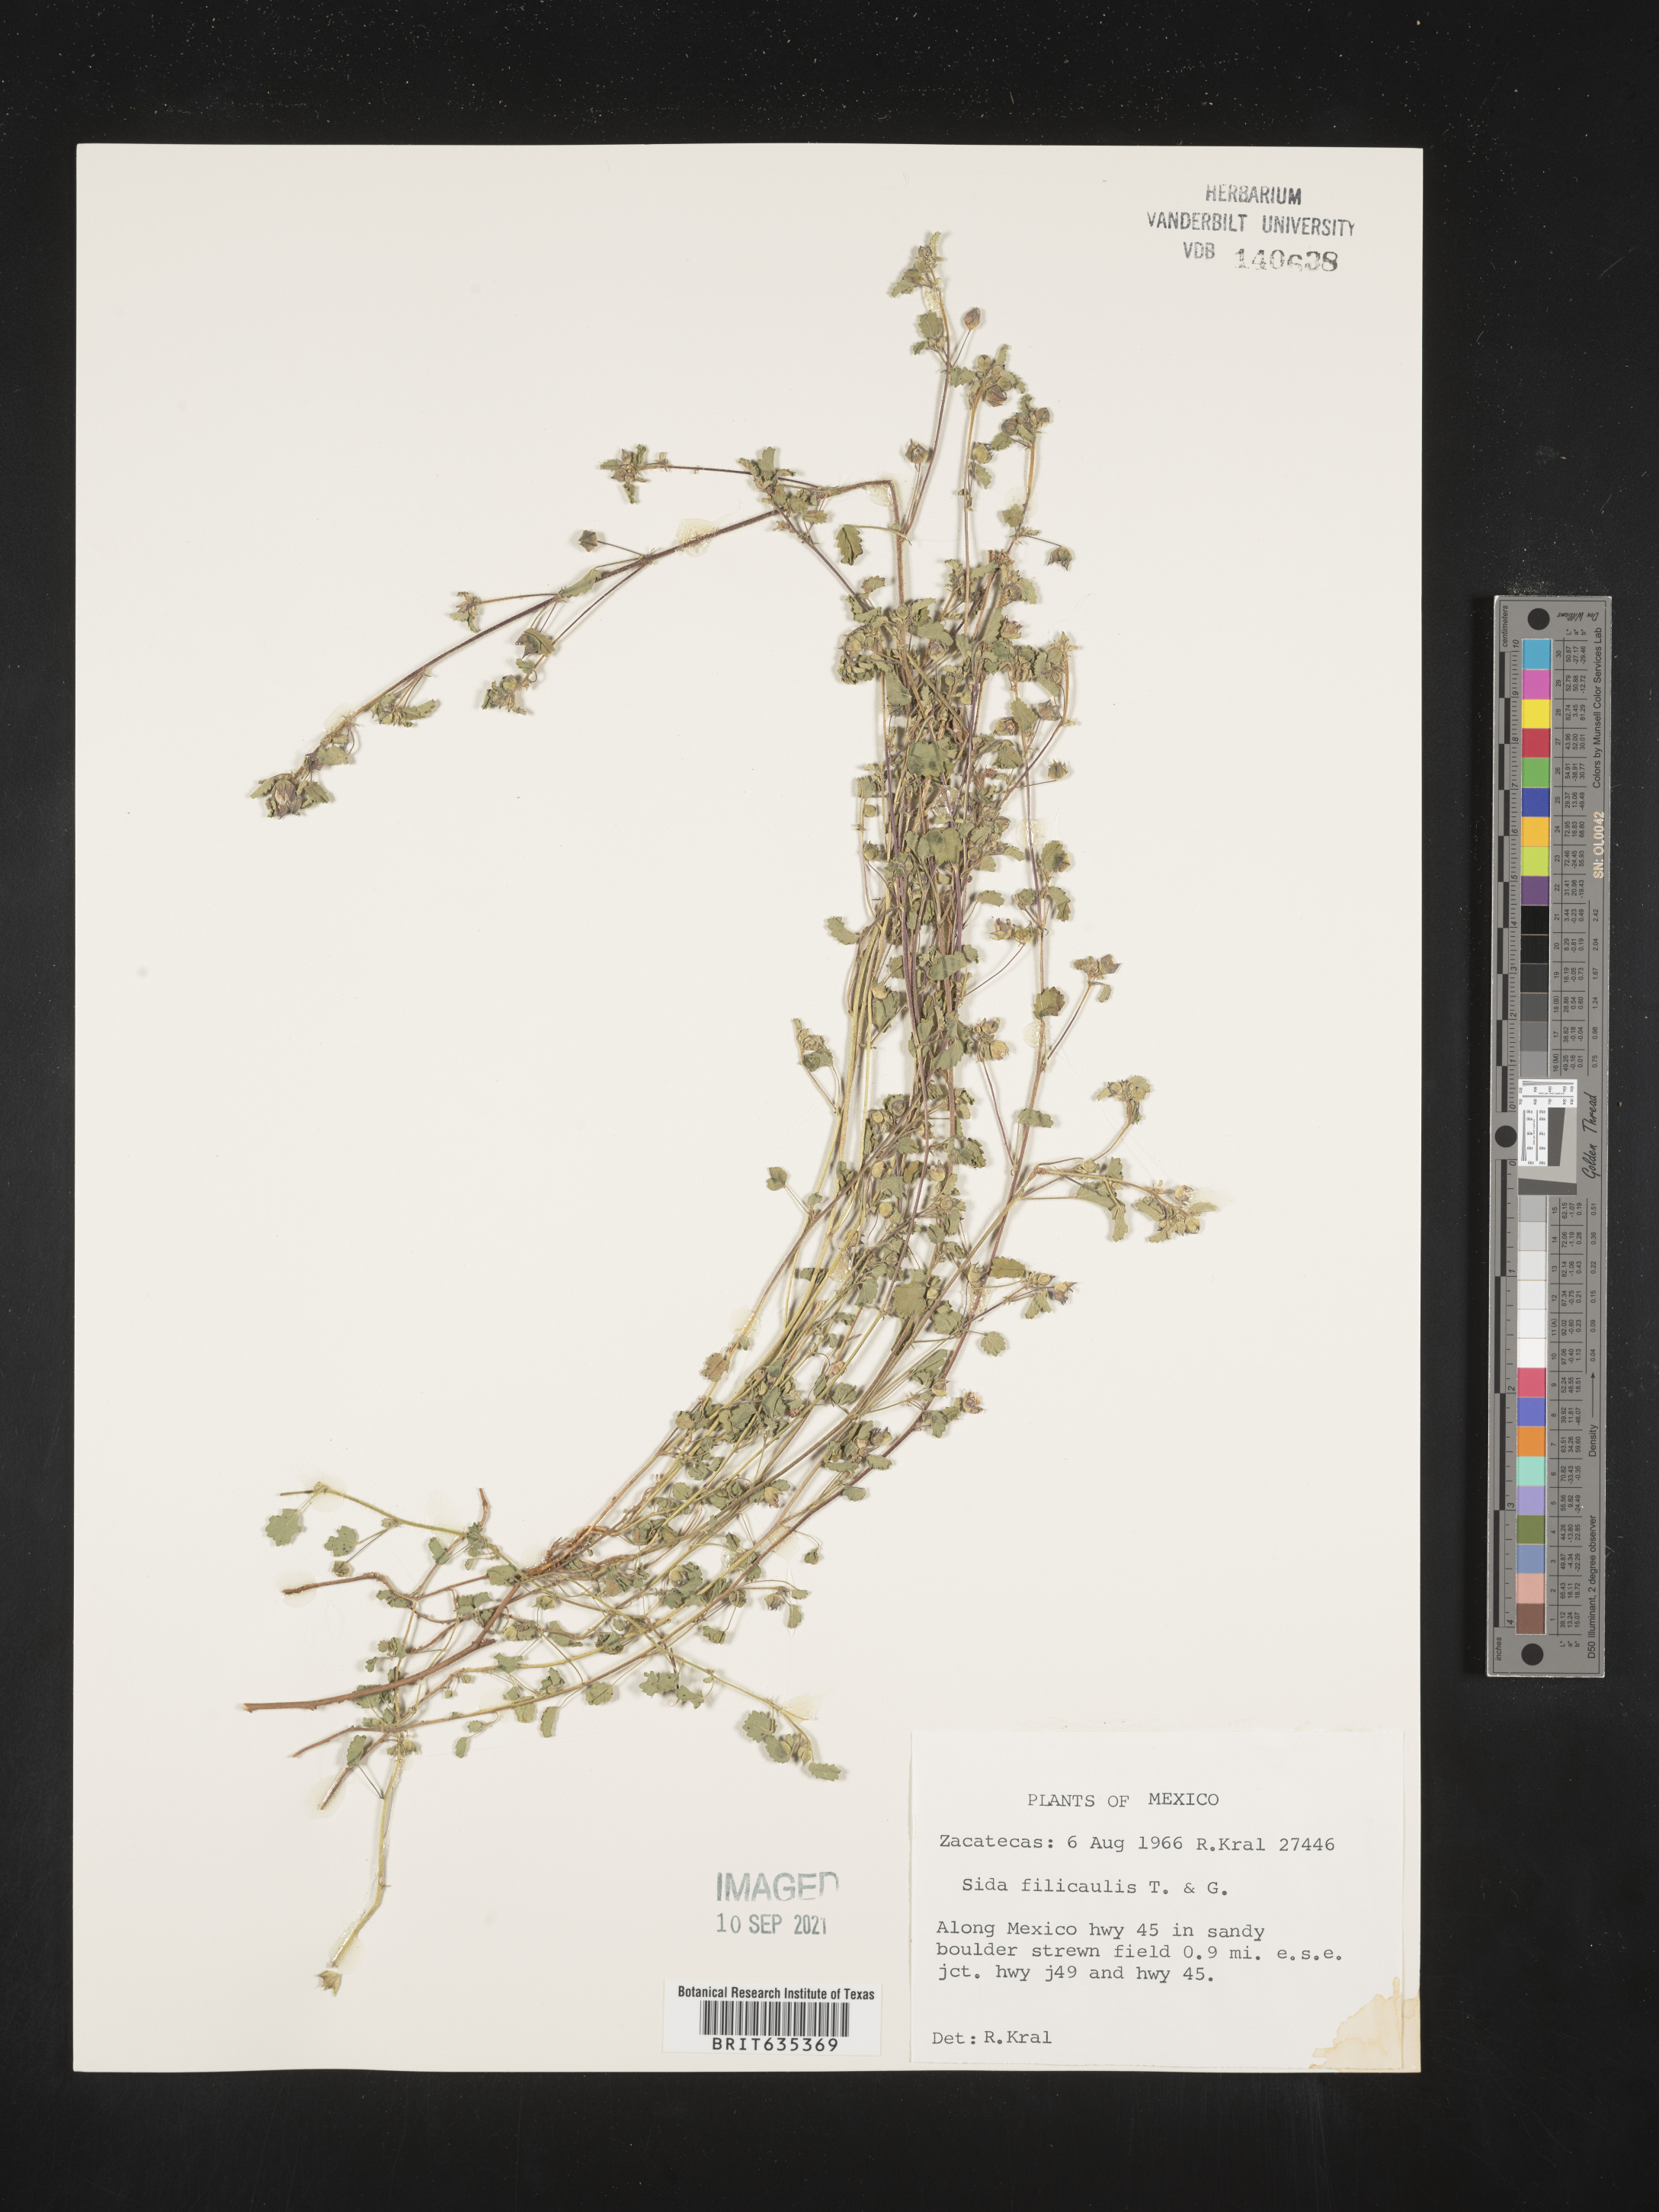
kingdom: Plantae
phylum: Tracheophyta
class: Magnoliopsida
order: Malvales
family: Malvaceae
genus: Sida
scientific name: Sida
